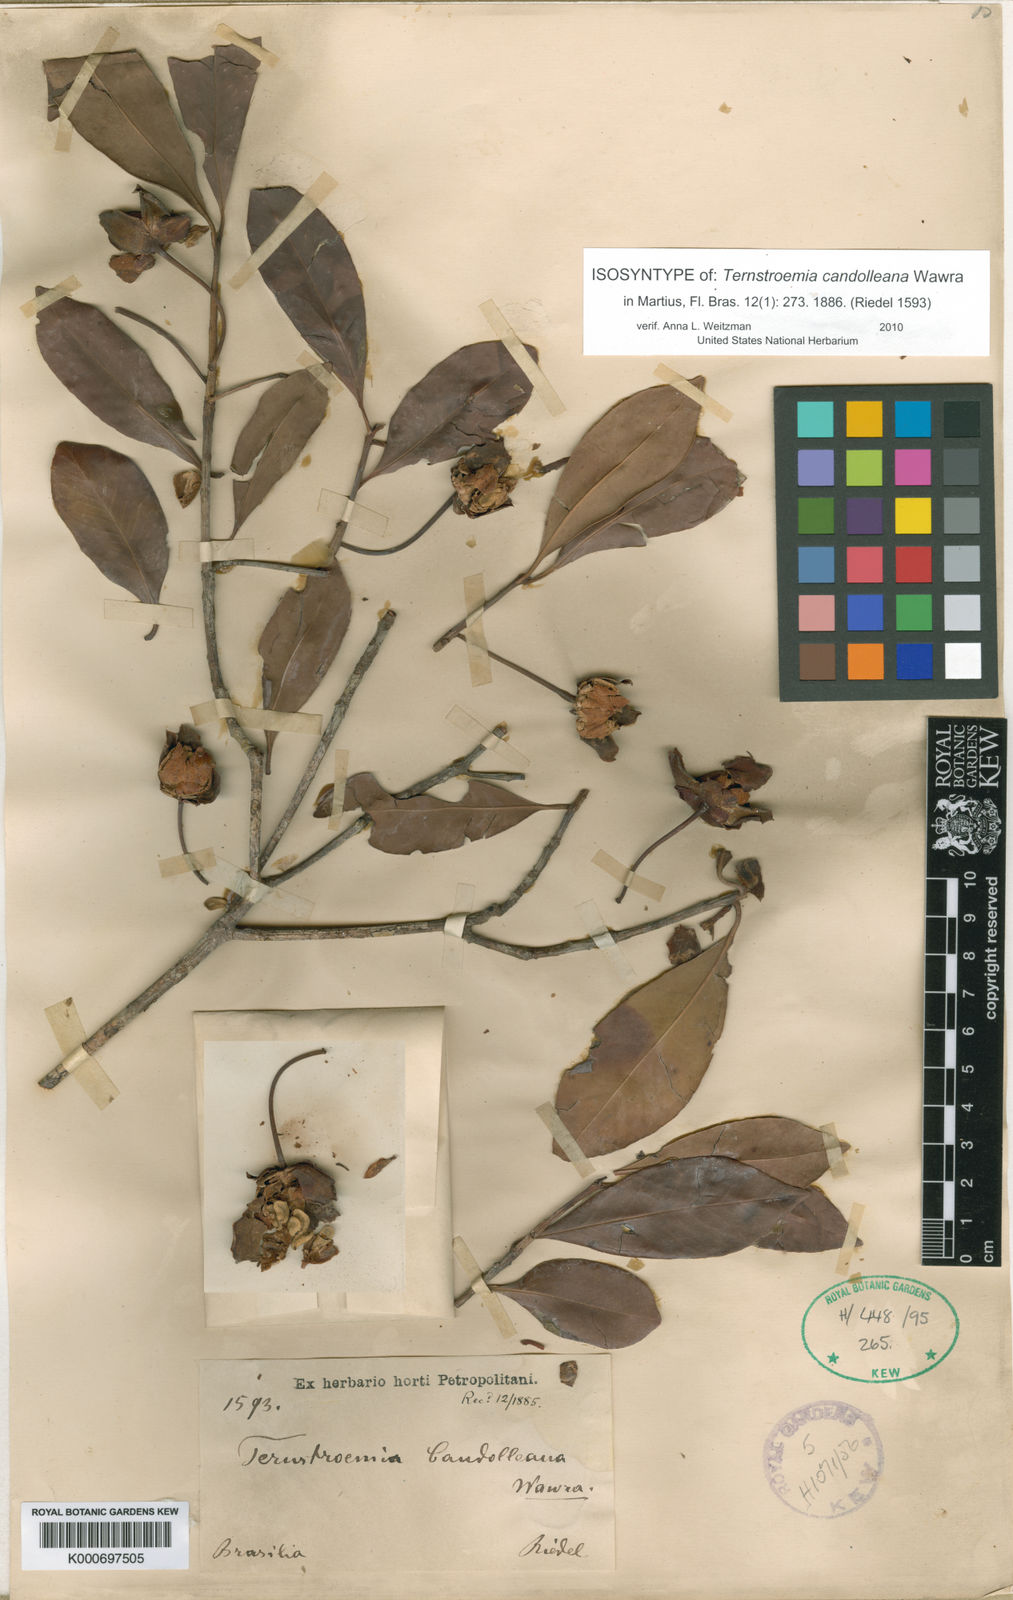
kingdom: Plantae
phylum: Tracheophyta
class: Magnoliopsida
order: Ericales
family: Pentaphylacaceae
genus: Ternstroemia
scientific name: Ternstroemia candolleana
